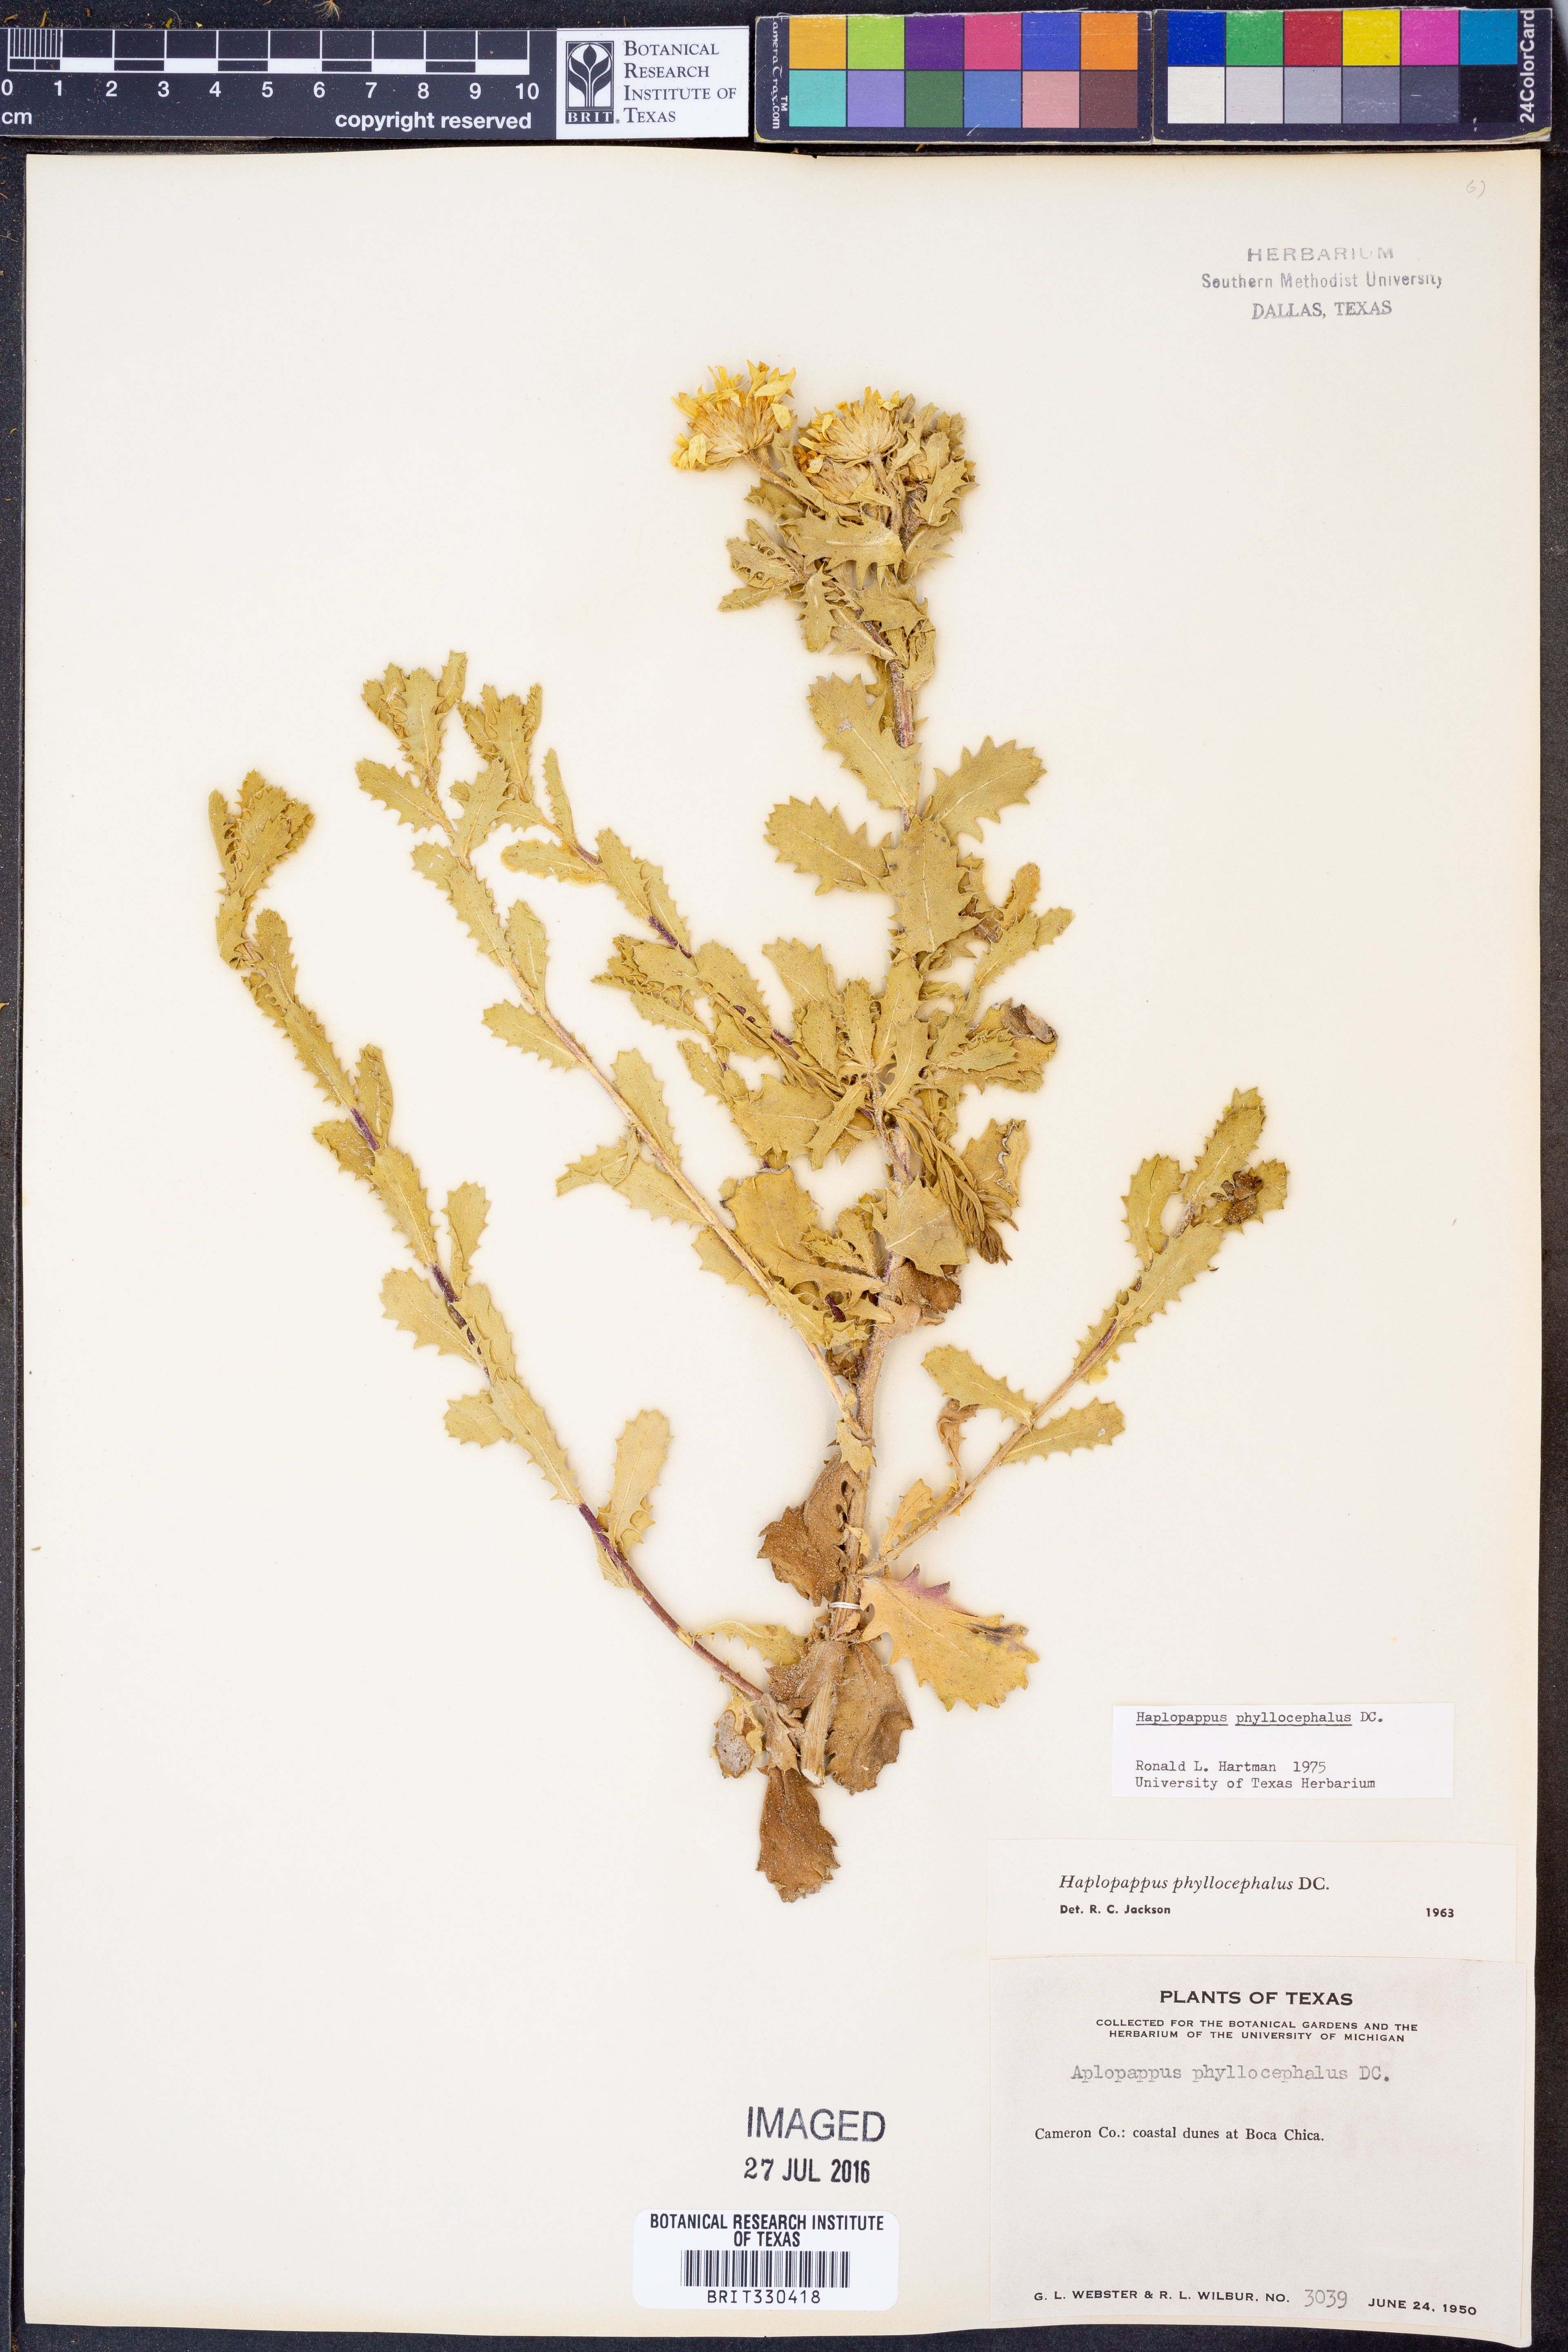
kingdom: Plantae
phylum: Tracheophyta
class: Magnoliopsida
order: Asterales
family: Asteraceae
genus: Rayjacksonia
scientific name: Rayjacksonia phyllocephala
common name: Gulf coast camphor daisy
